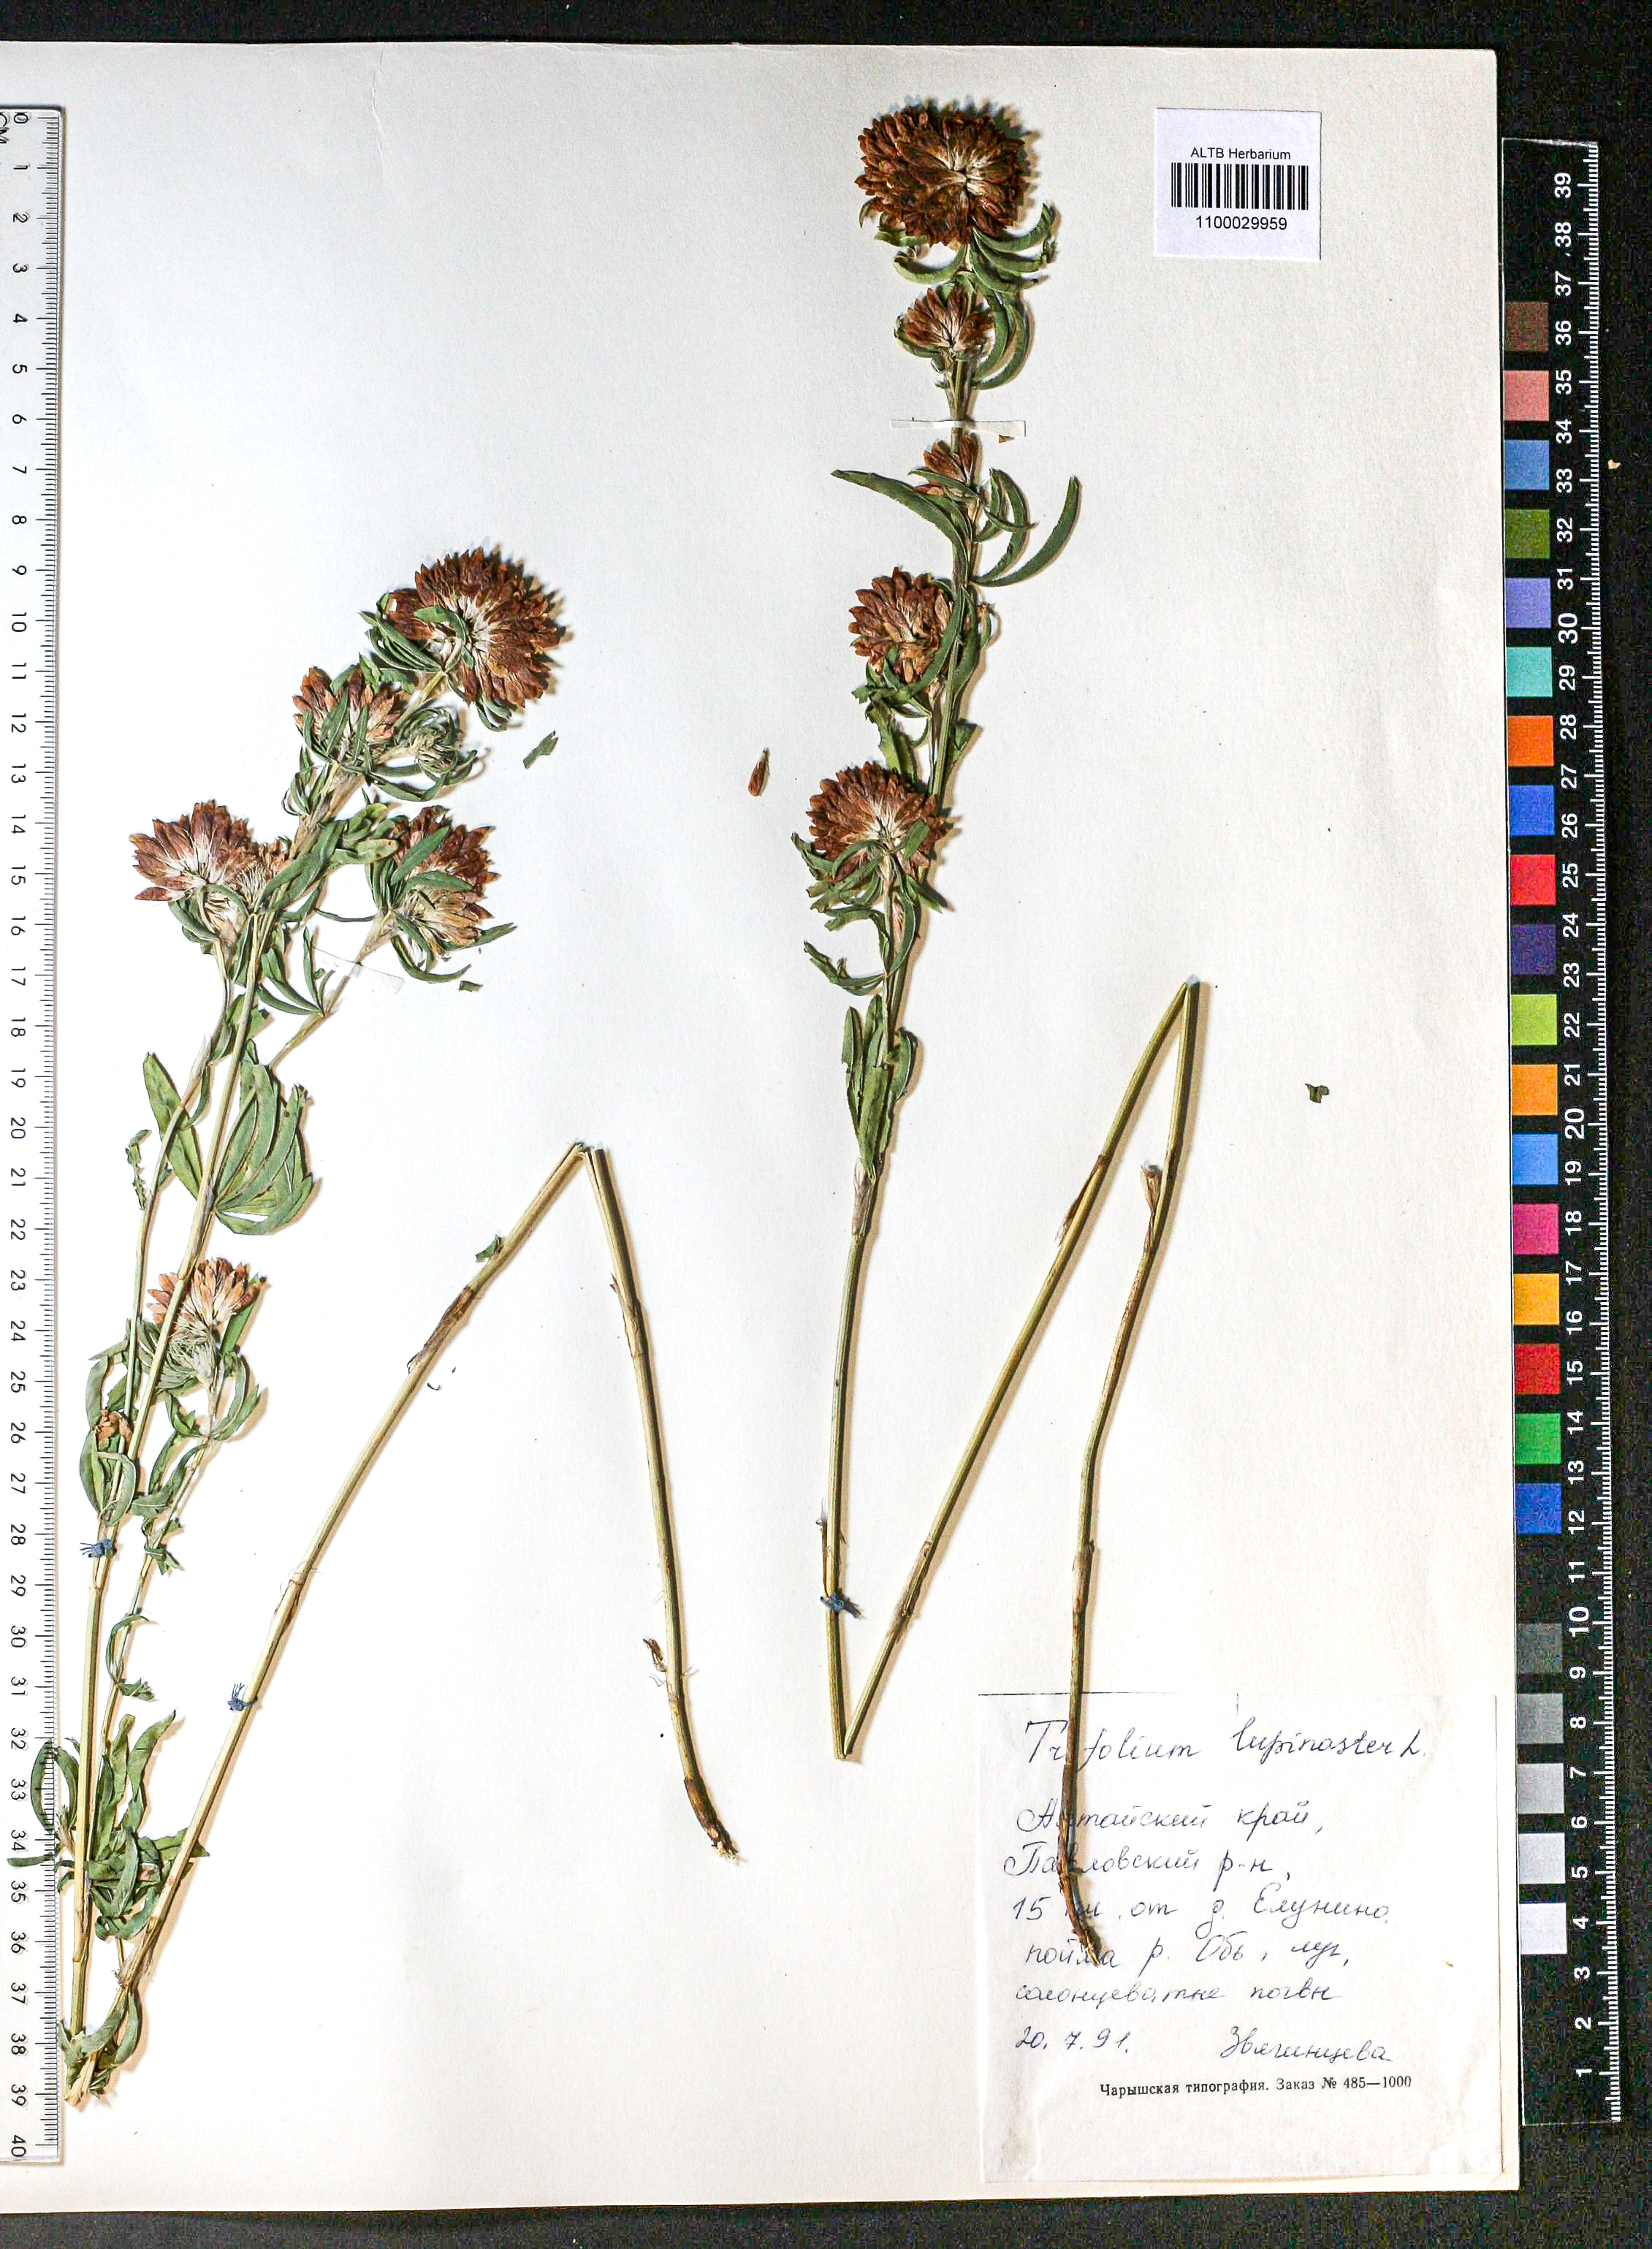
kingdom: Plantae
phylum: Tracheophyta
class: Magnoliopsida
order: Fabales
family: Fabaceae
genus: Trifolium
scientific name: Trifolium lupinaster
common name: Lupine clover
